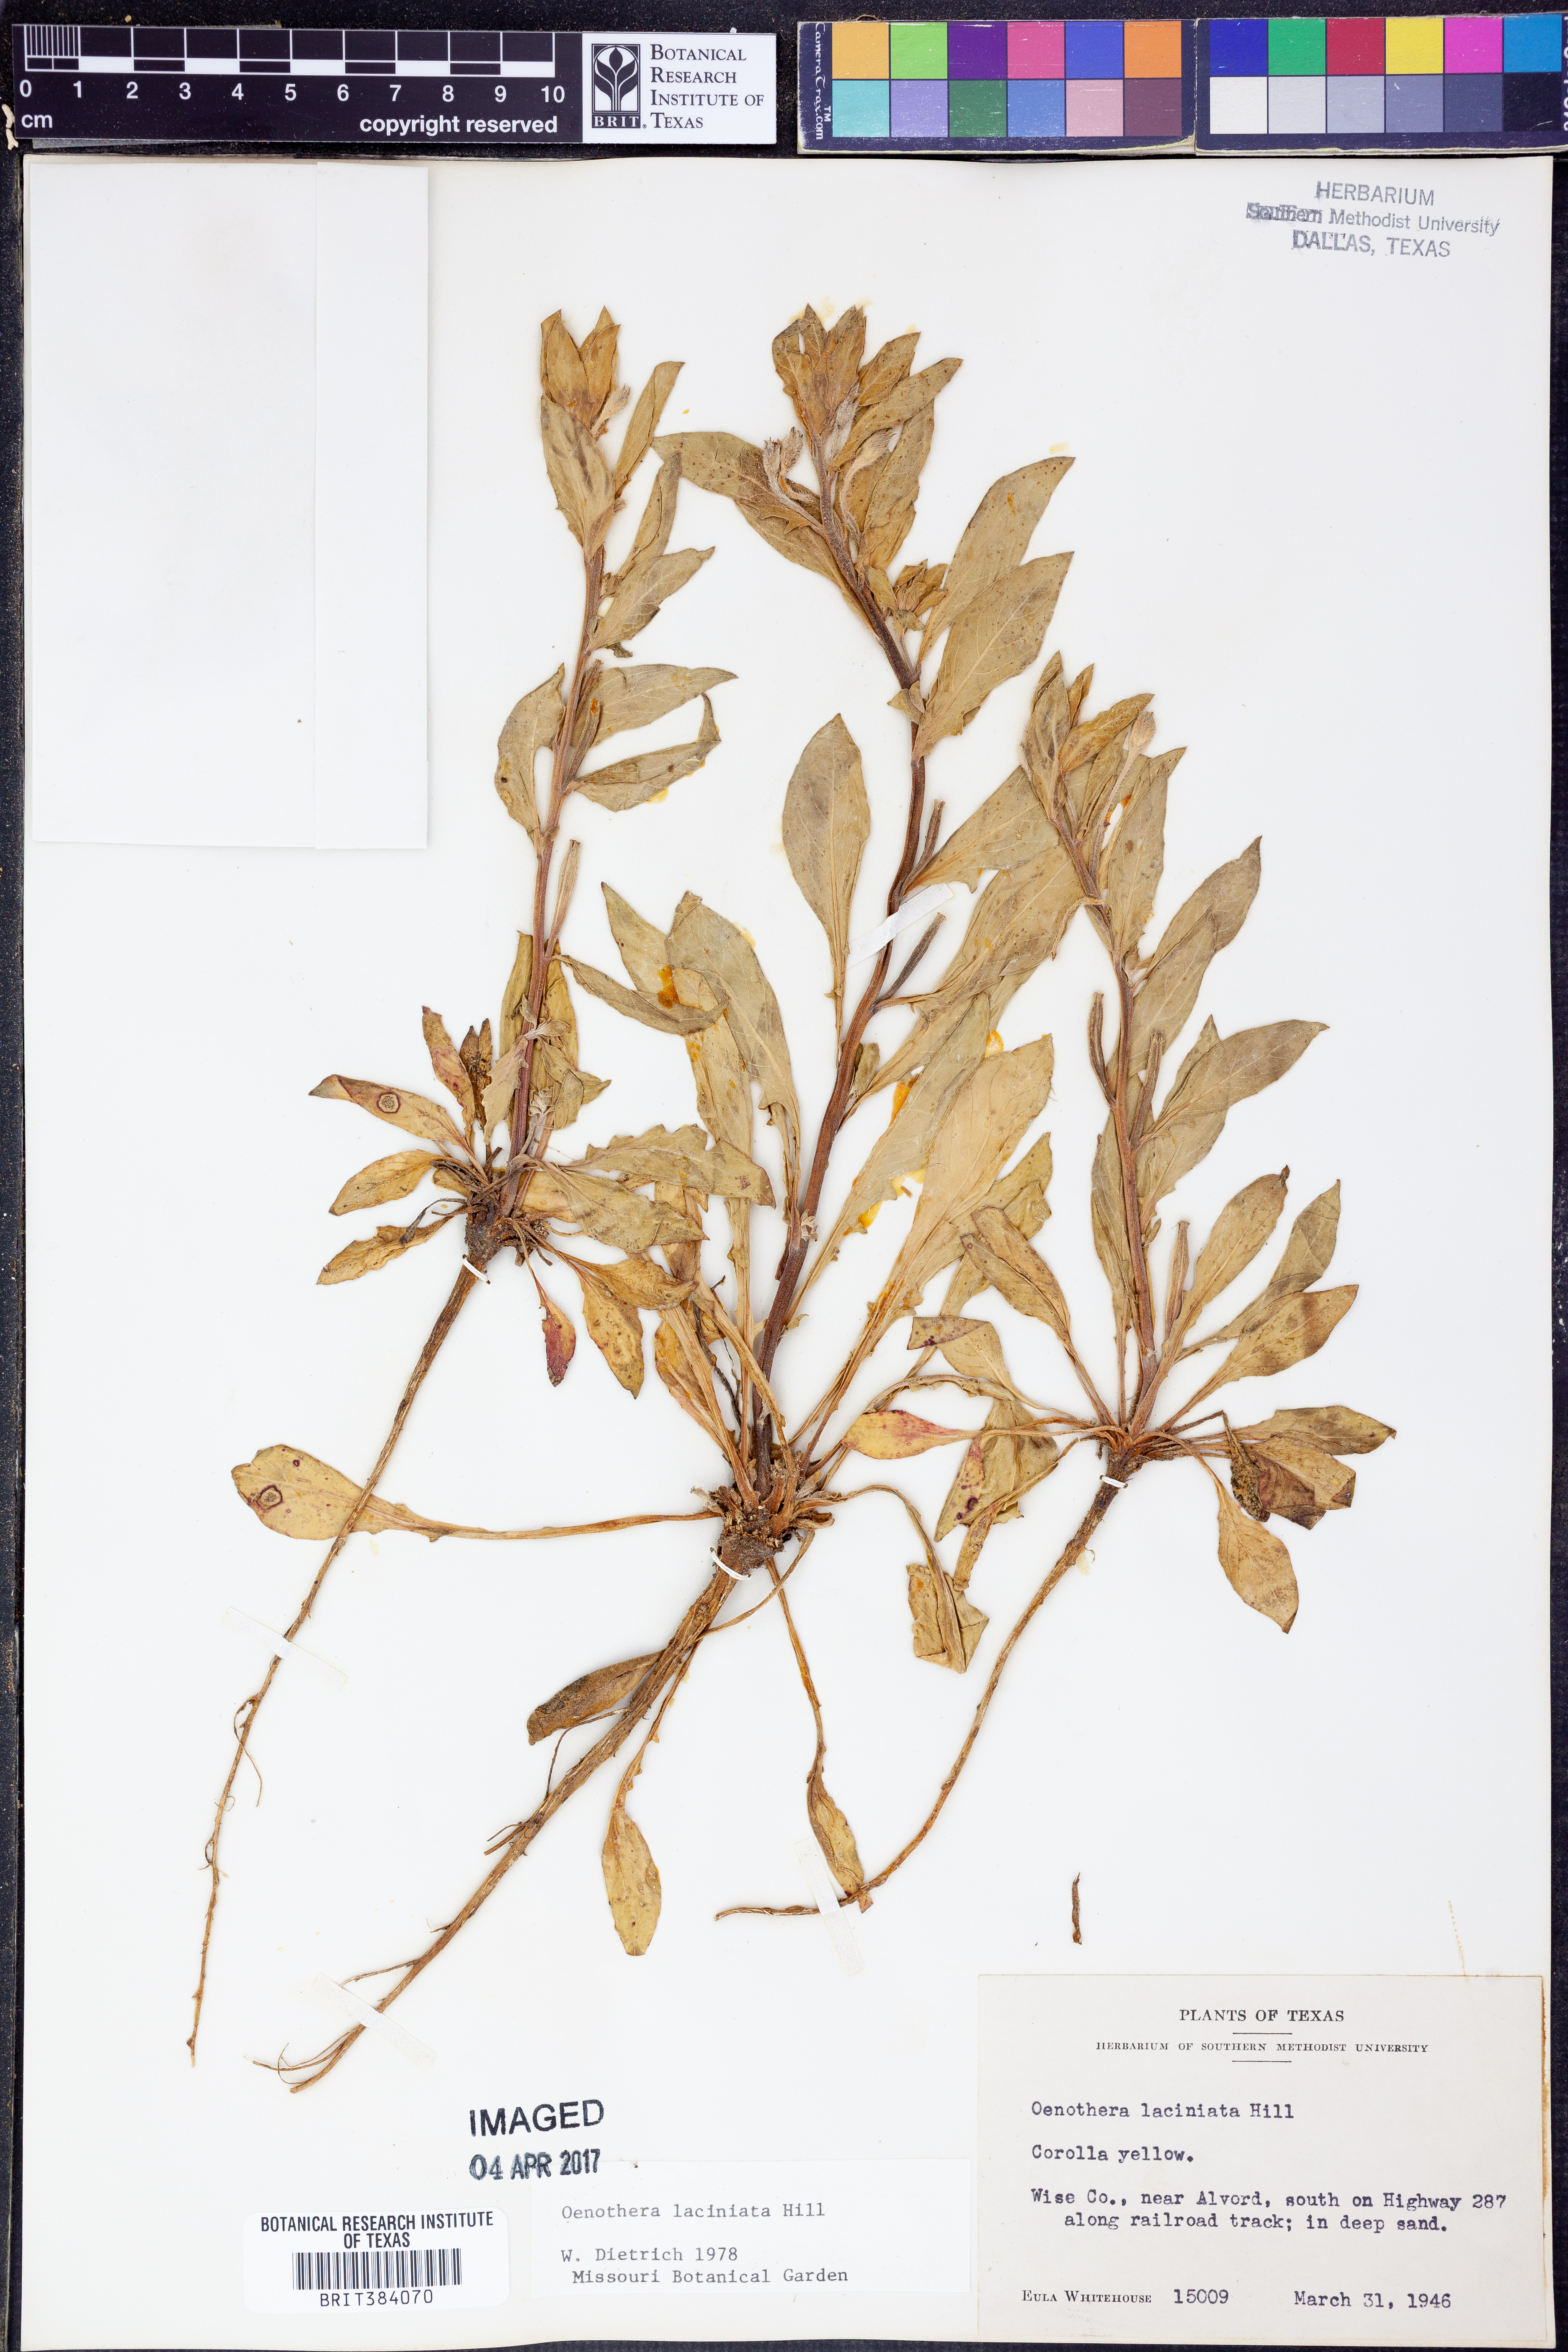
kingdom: Plantae
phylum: Tracheophyta
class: Magnoliopsida
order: Myrtales
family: Onagraceae
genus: Oenothera
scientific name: Oenothera laciniata
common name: Cut-leaved evening-primrose
